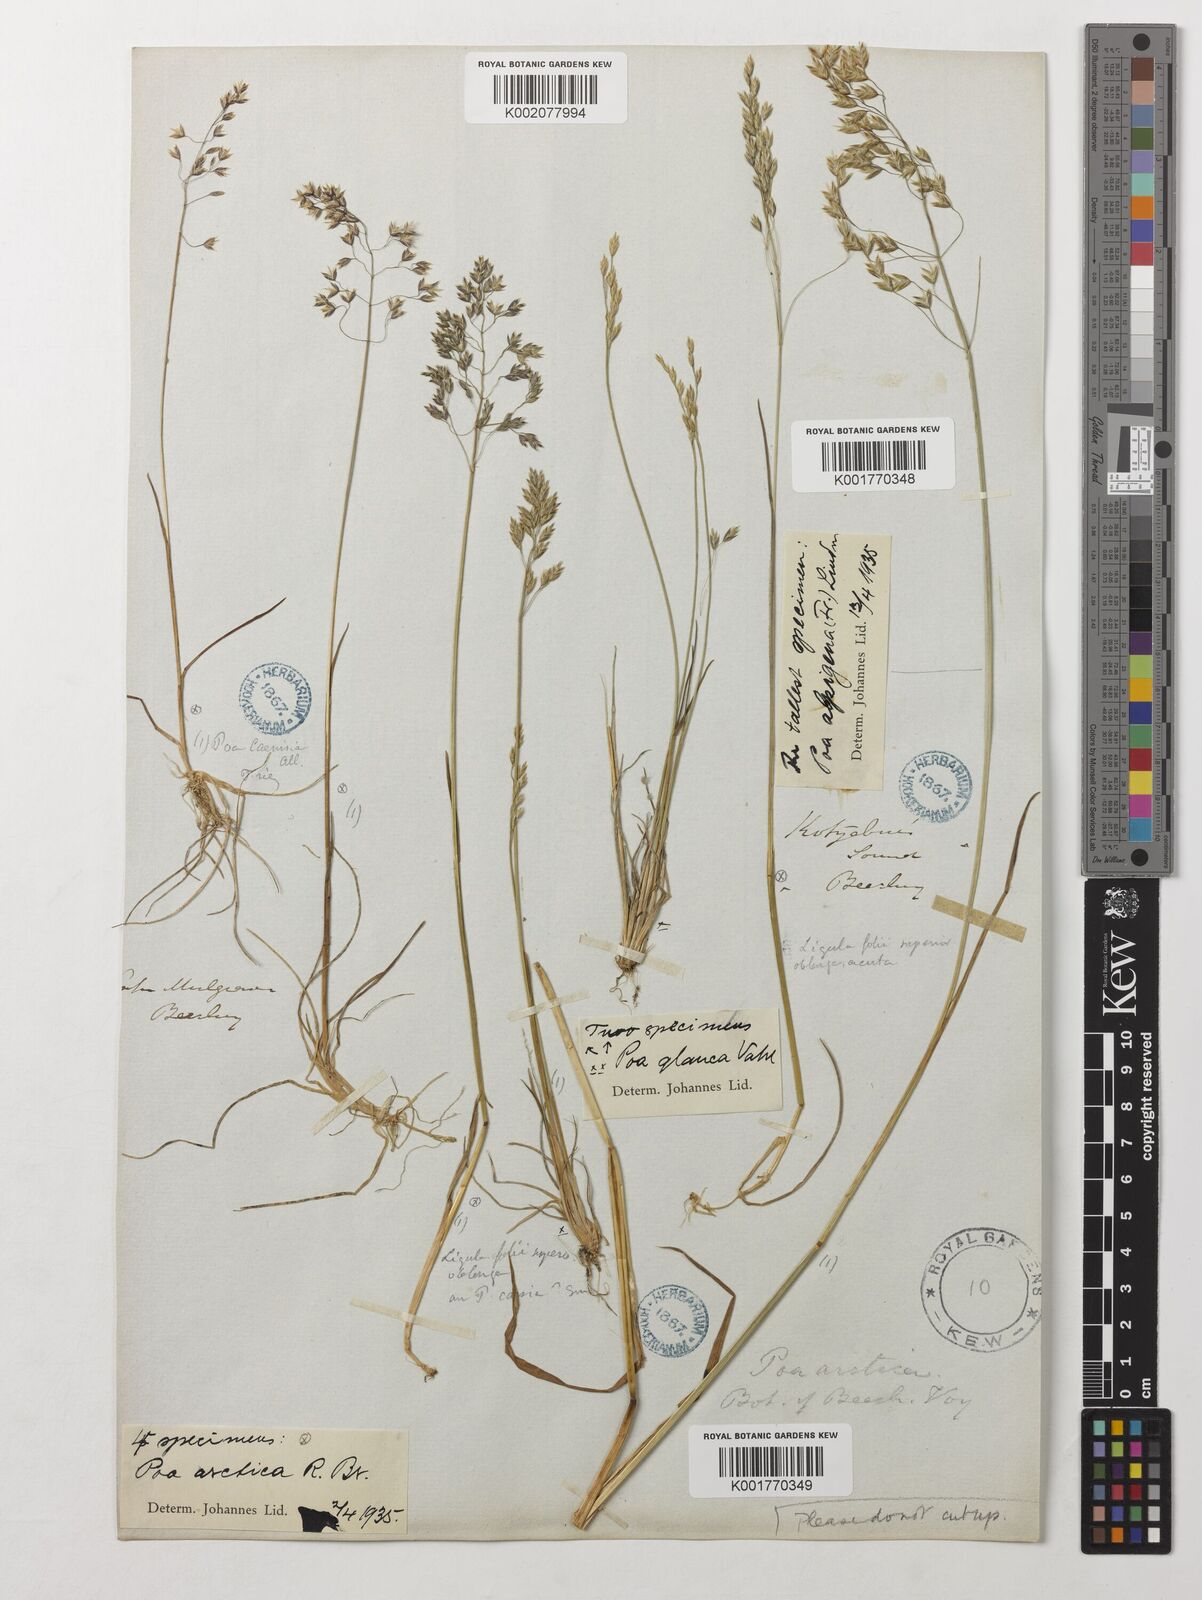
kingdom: Plantae
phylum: Tracheophyta
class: Liliopsida
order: Poales
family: Poaceae
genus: Poa
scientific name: Poa arctica
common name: Arctic bluegrass
